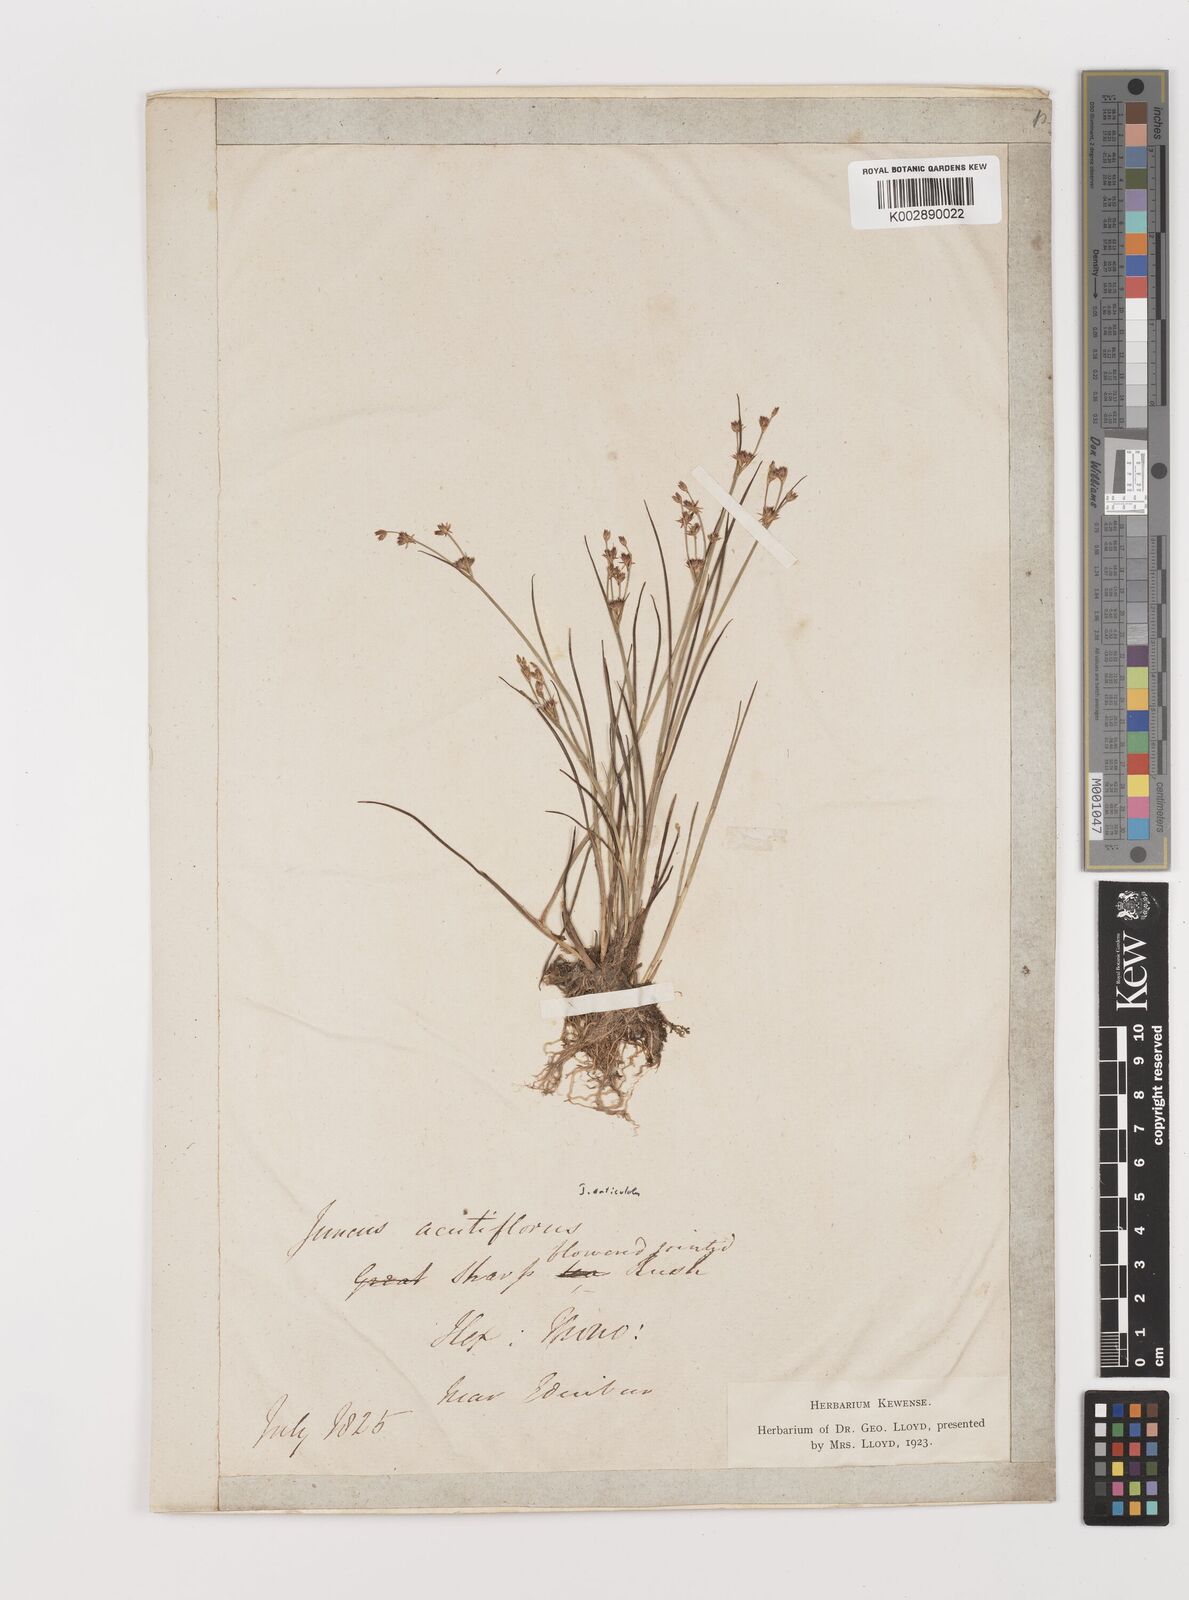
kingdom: Plantae
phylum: Tracheophyta
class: Liliopsida
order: Poales
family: Juncaceae
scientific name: Juncaceae
